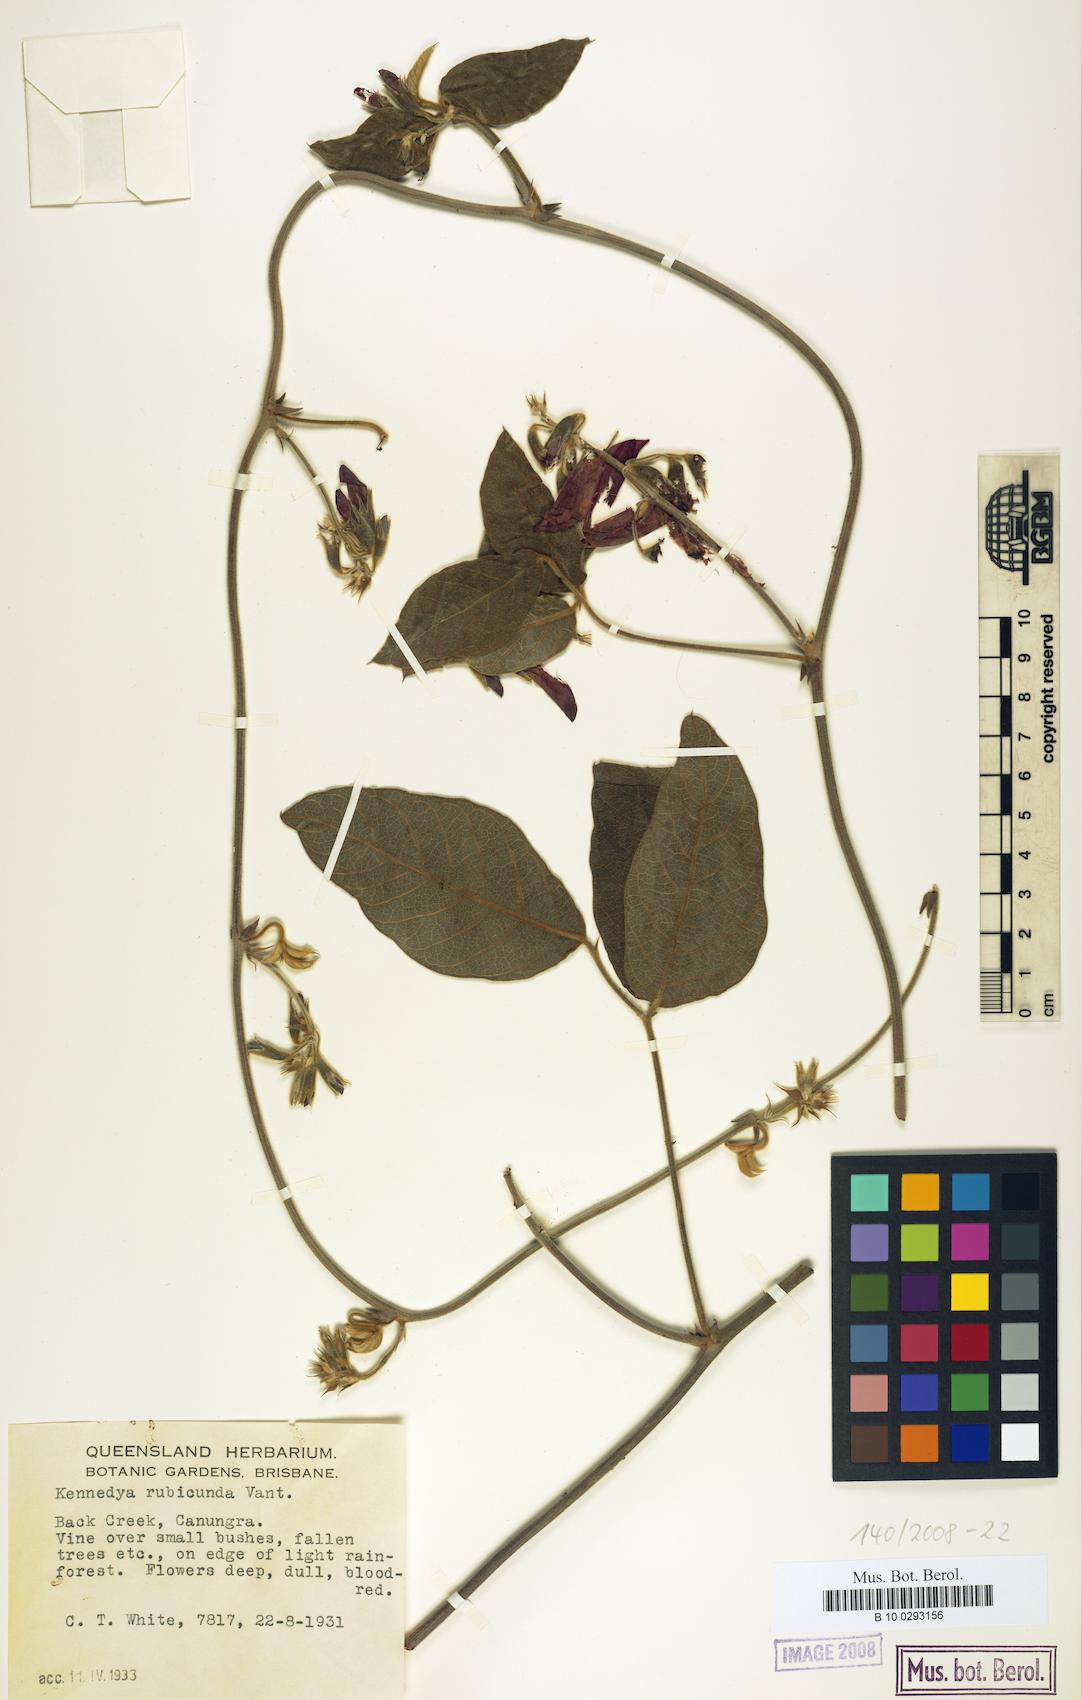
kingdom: Plantae
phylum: Tracheophyta
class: Magnoliopsida
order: Fabales
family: Fabaceae
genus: Kennedia
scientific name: Kennedia rubicunda
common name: Red kennedy-pea
